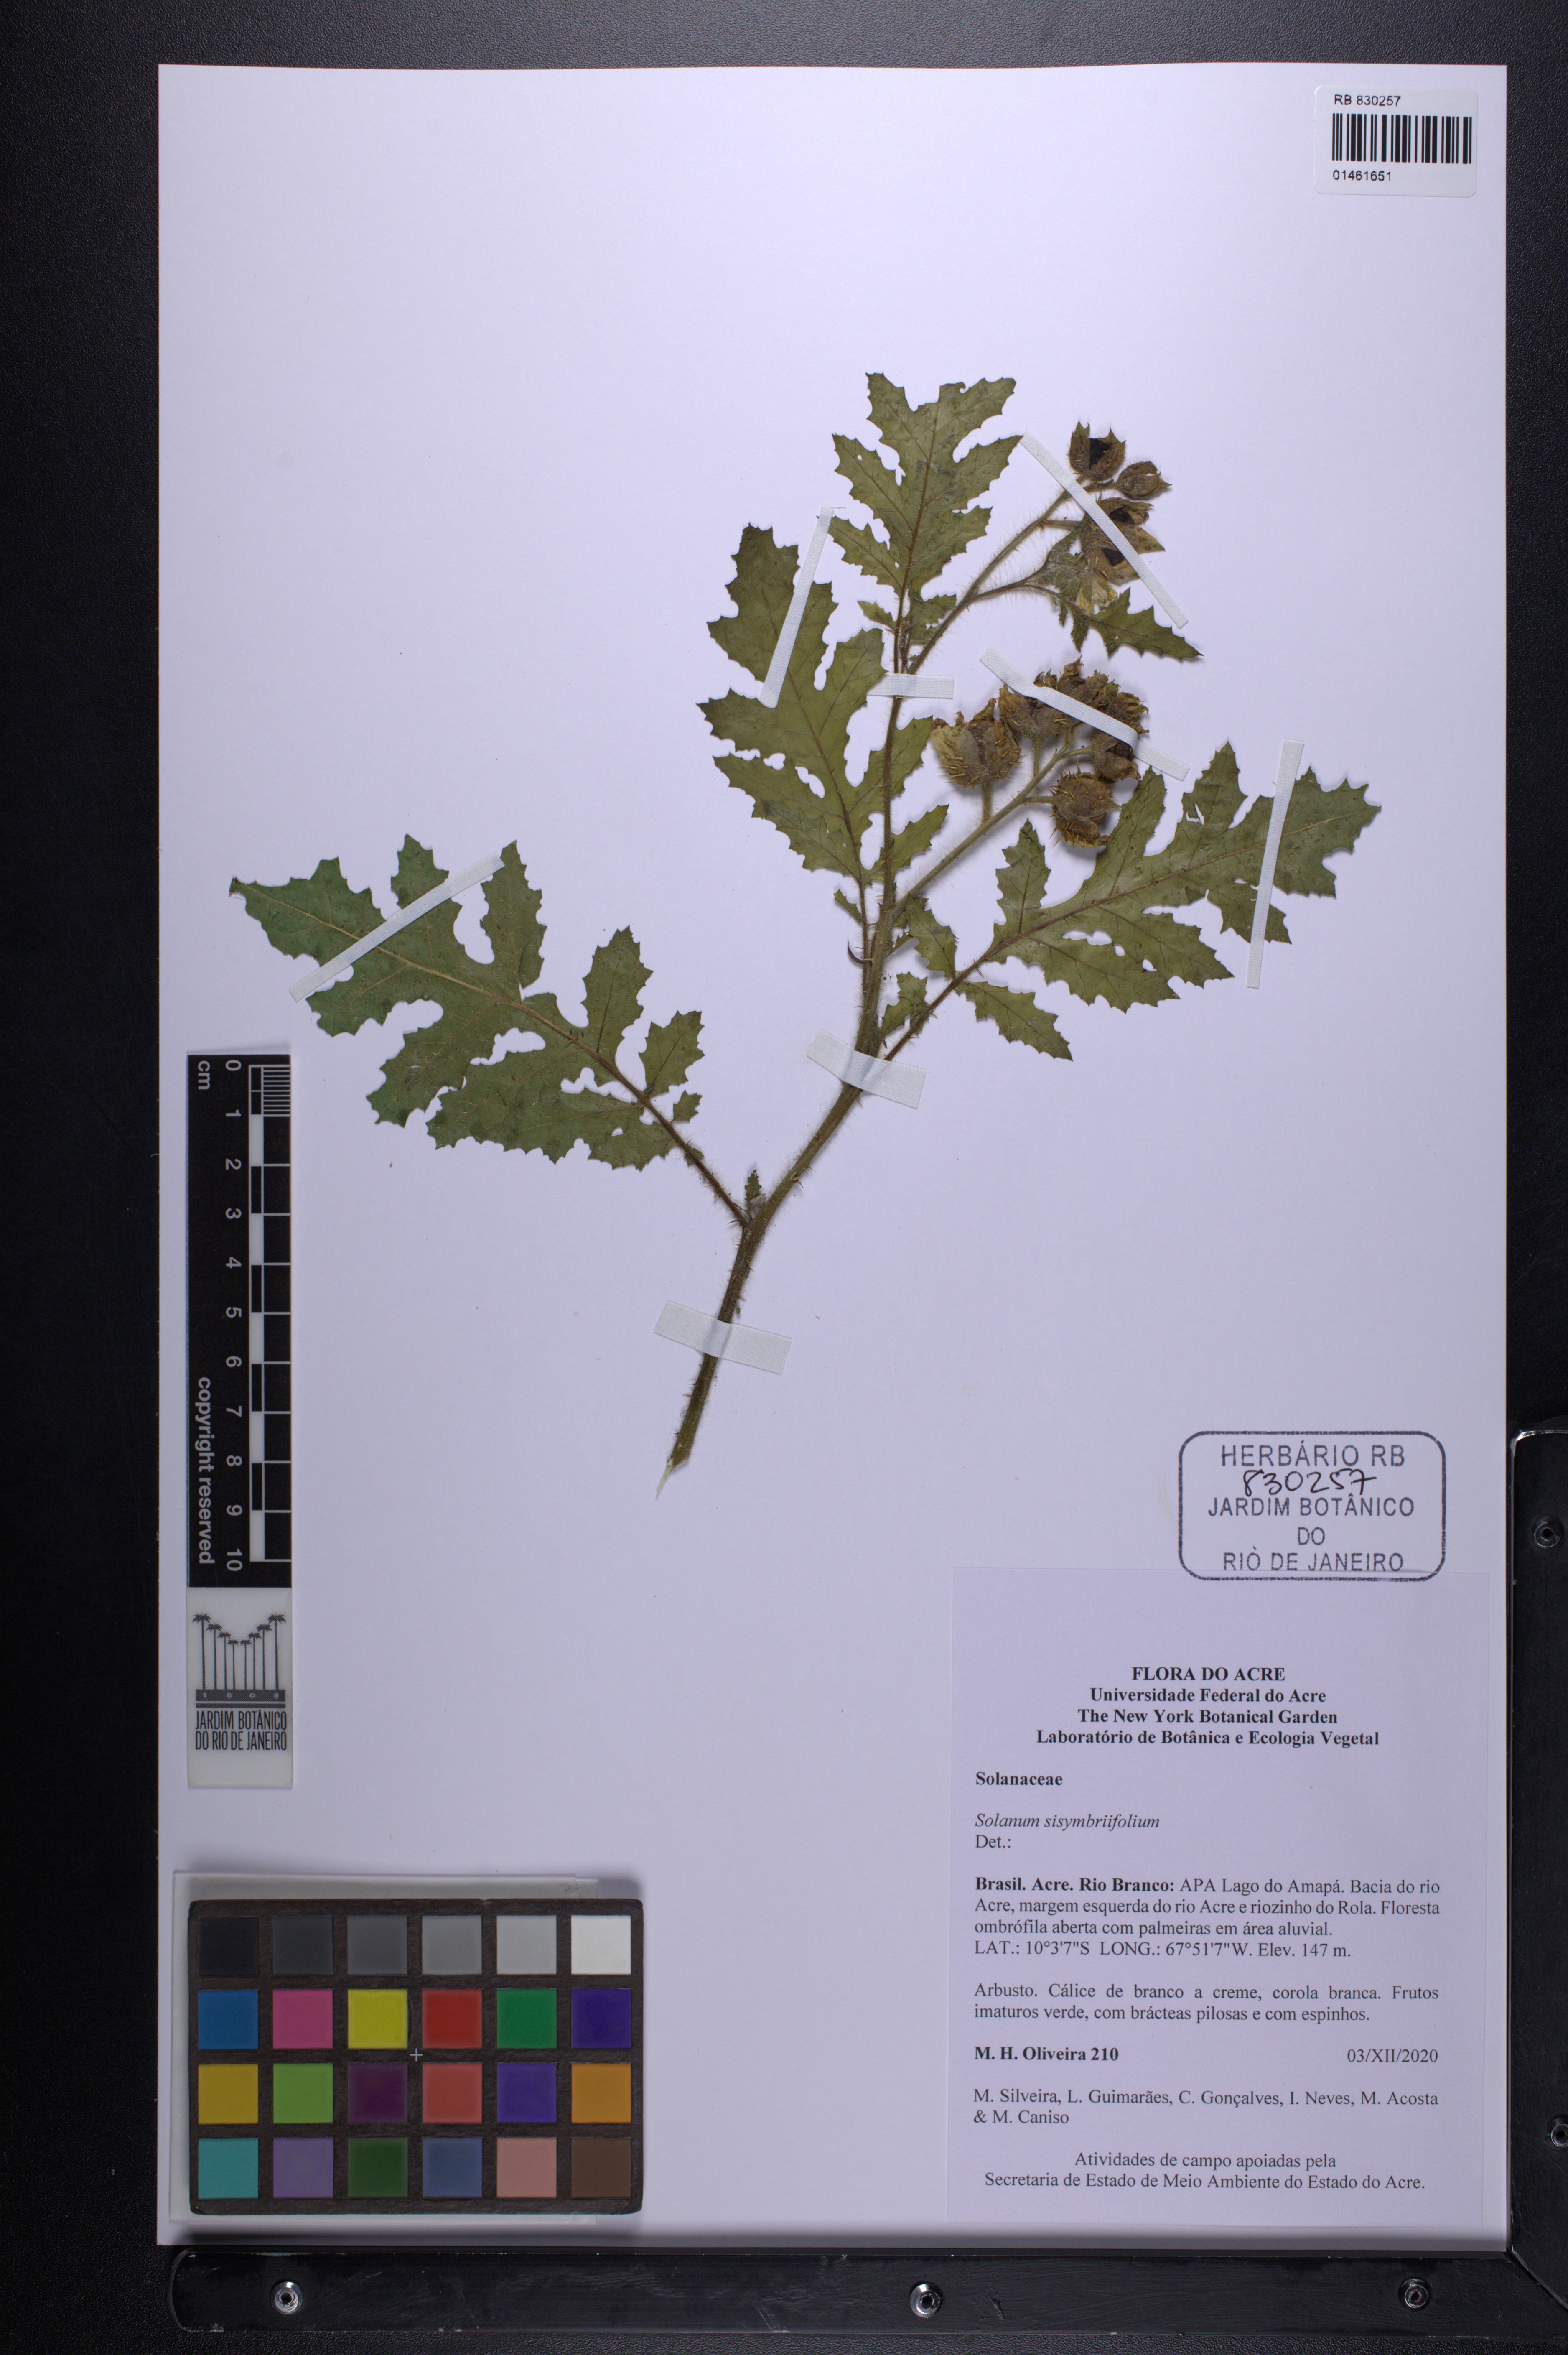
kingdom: Plantae
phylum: Tracheophyta
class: Magnoliopsida
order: Solanales
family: Solanaceae
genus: Solanum
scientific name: Solanum sisymbriifolium
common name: Red buffalo-bur
